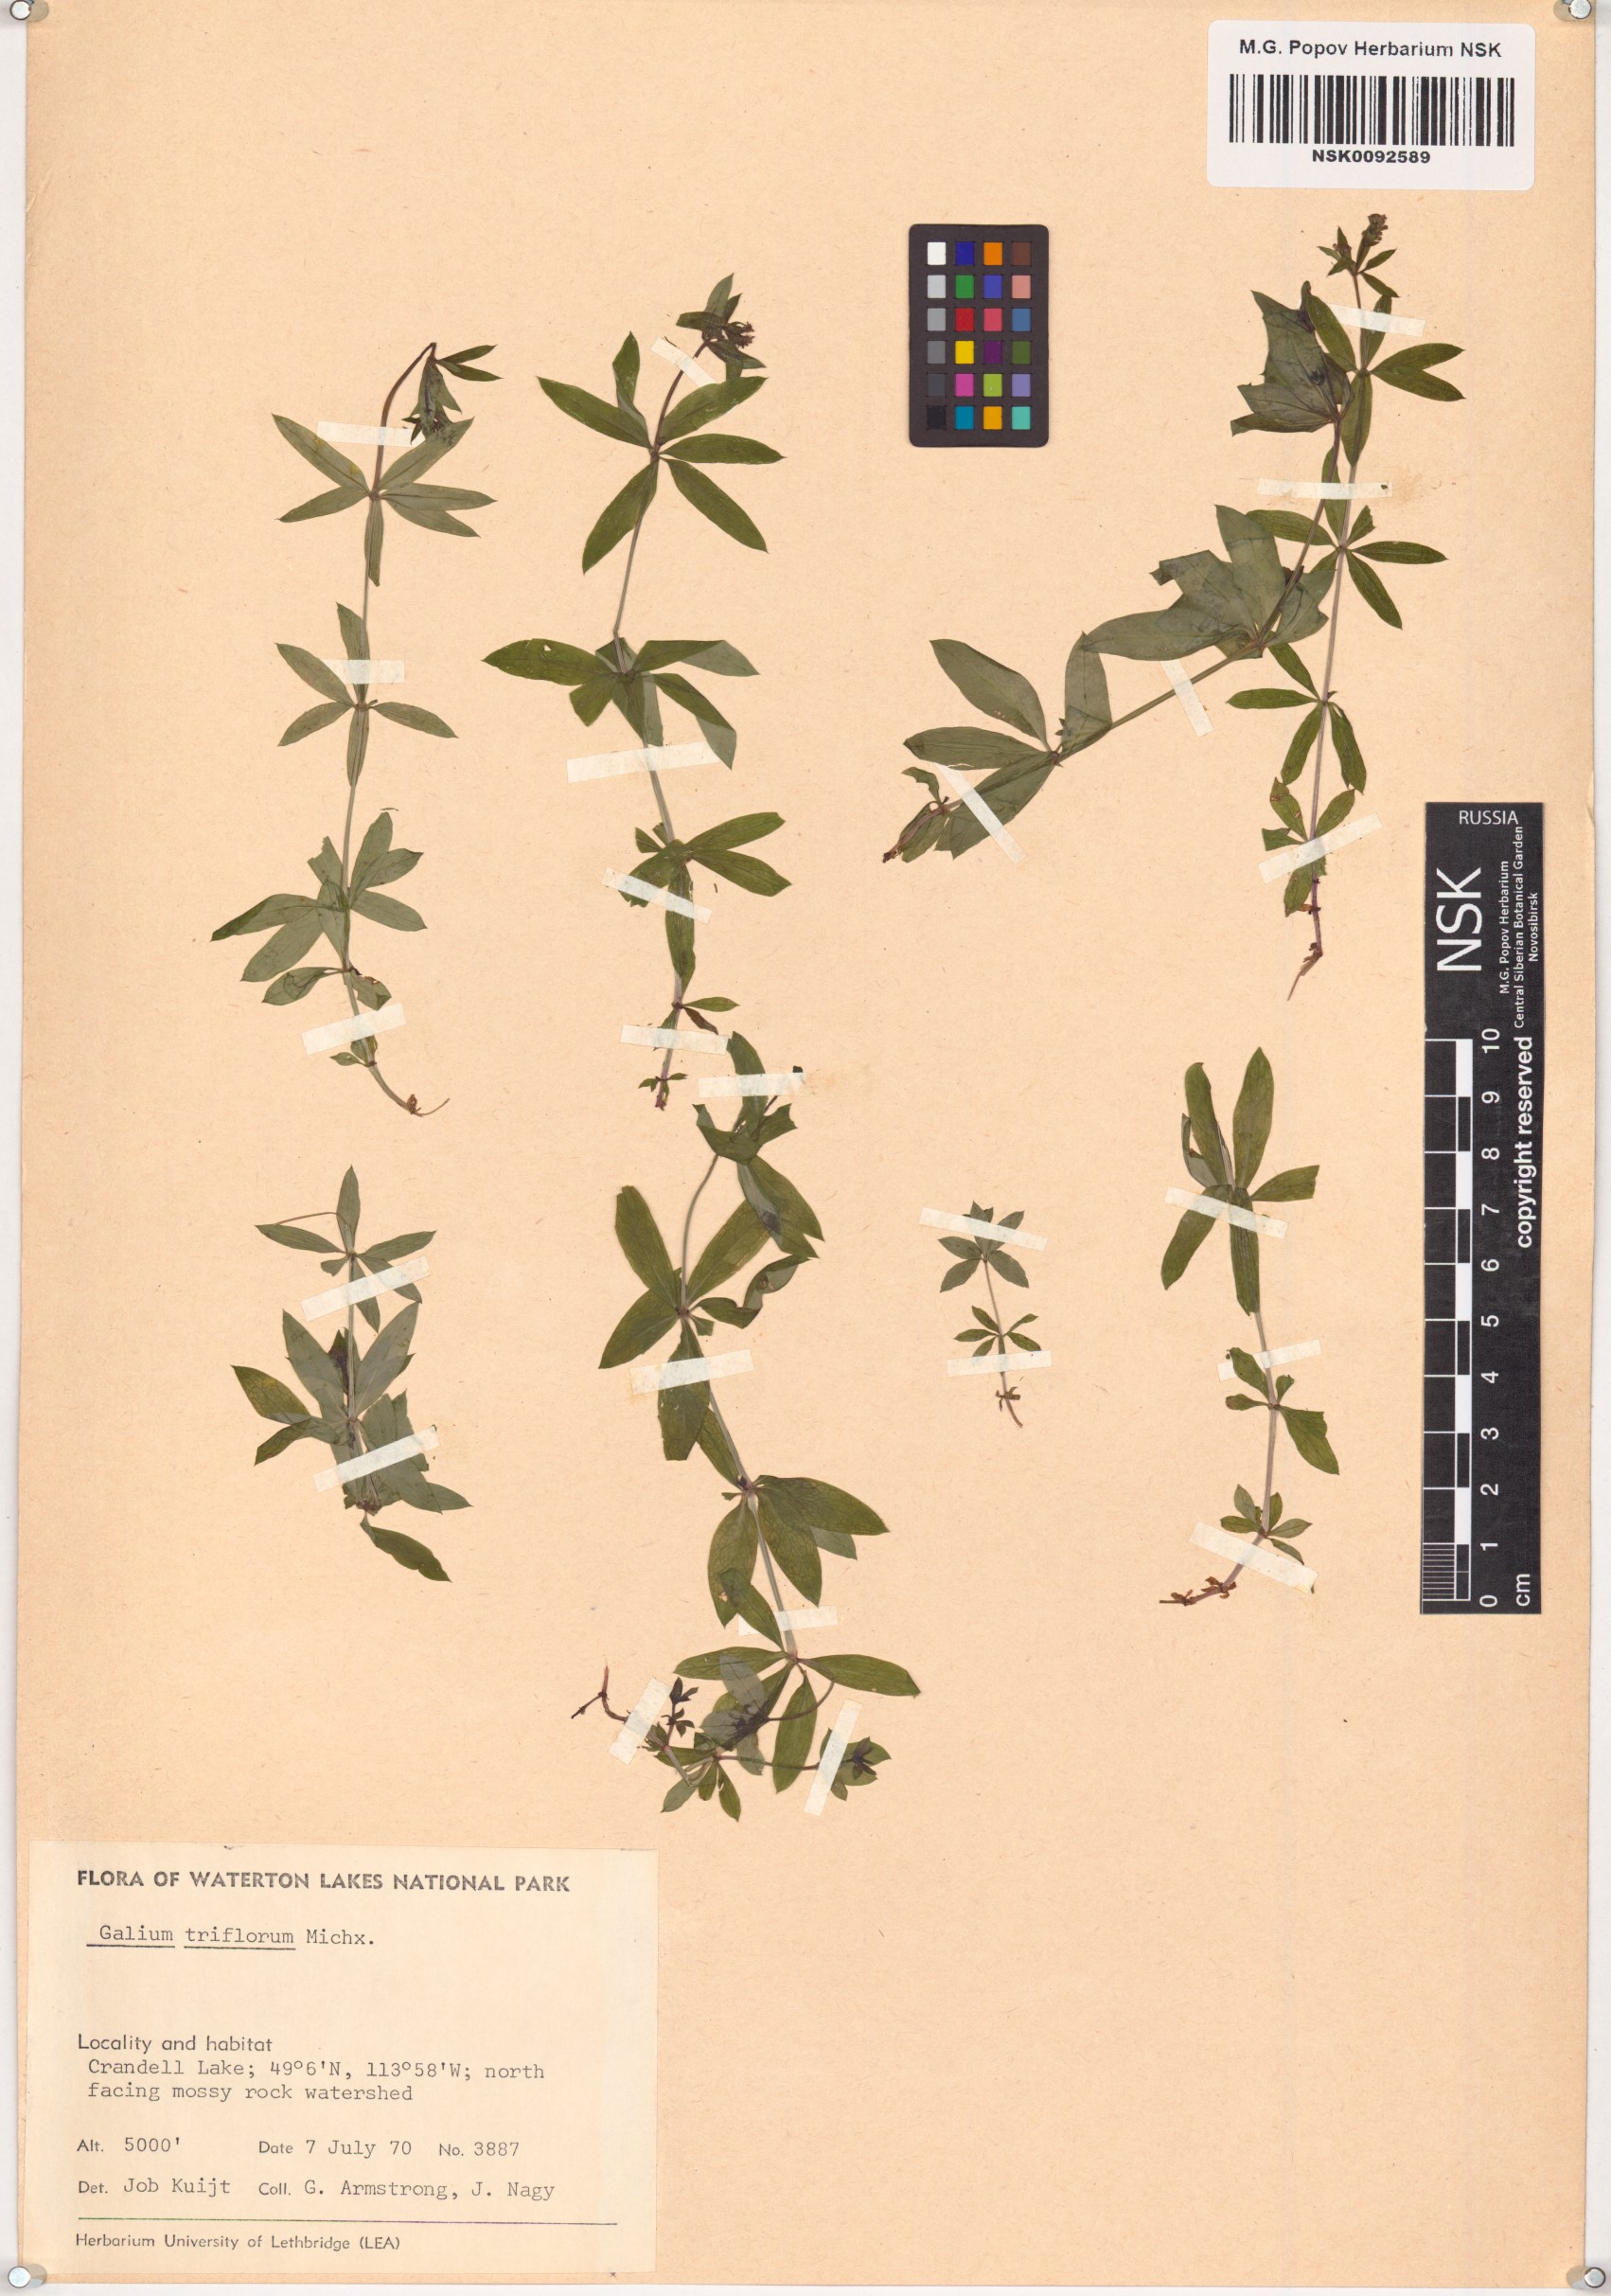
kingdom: Plantae
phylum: Tracheophyta
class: Magnoliopsida
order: Gentianales
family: Rubiaceae
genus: Galium
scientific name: Galium triflorum
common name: Fragrant bedstraw
